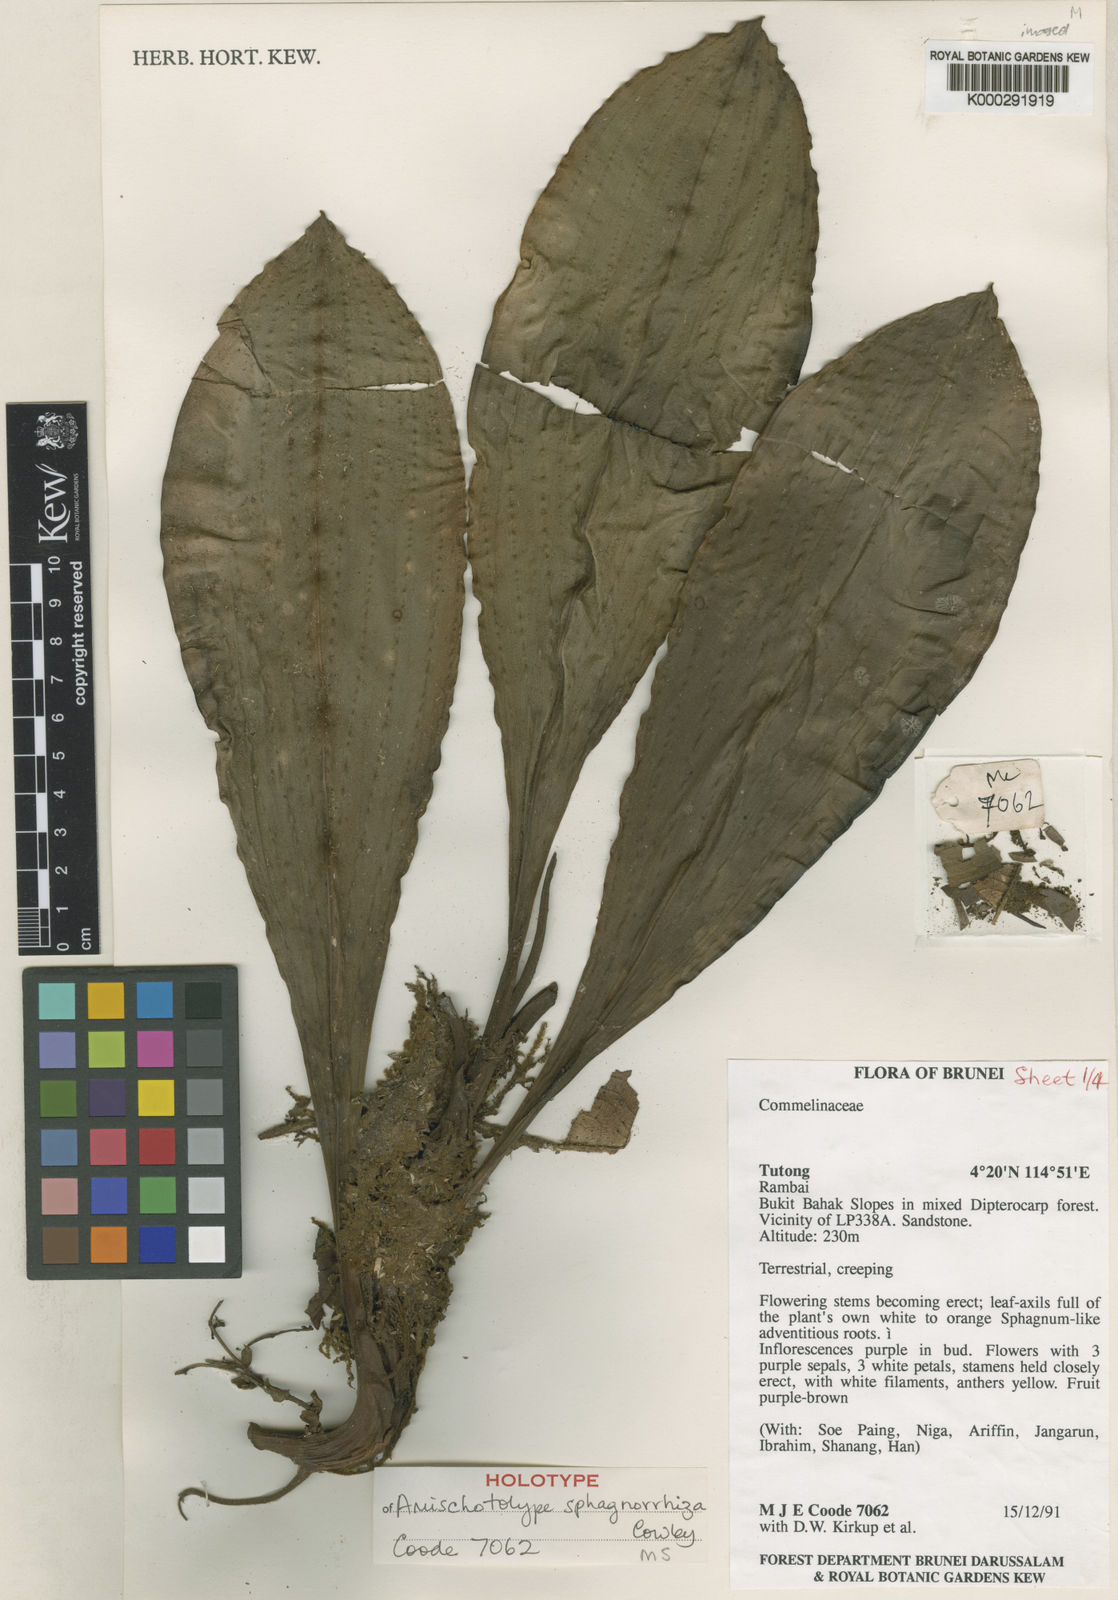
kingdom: Plantae
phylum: Tracheophyta
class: Liliopsida
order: Commelinales
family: Commelinaceae
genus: Amischotolype
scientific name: Amischotolype sphagnorrhiza
